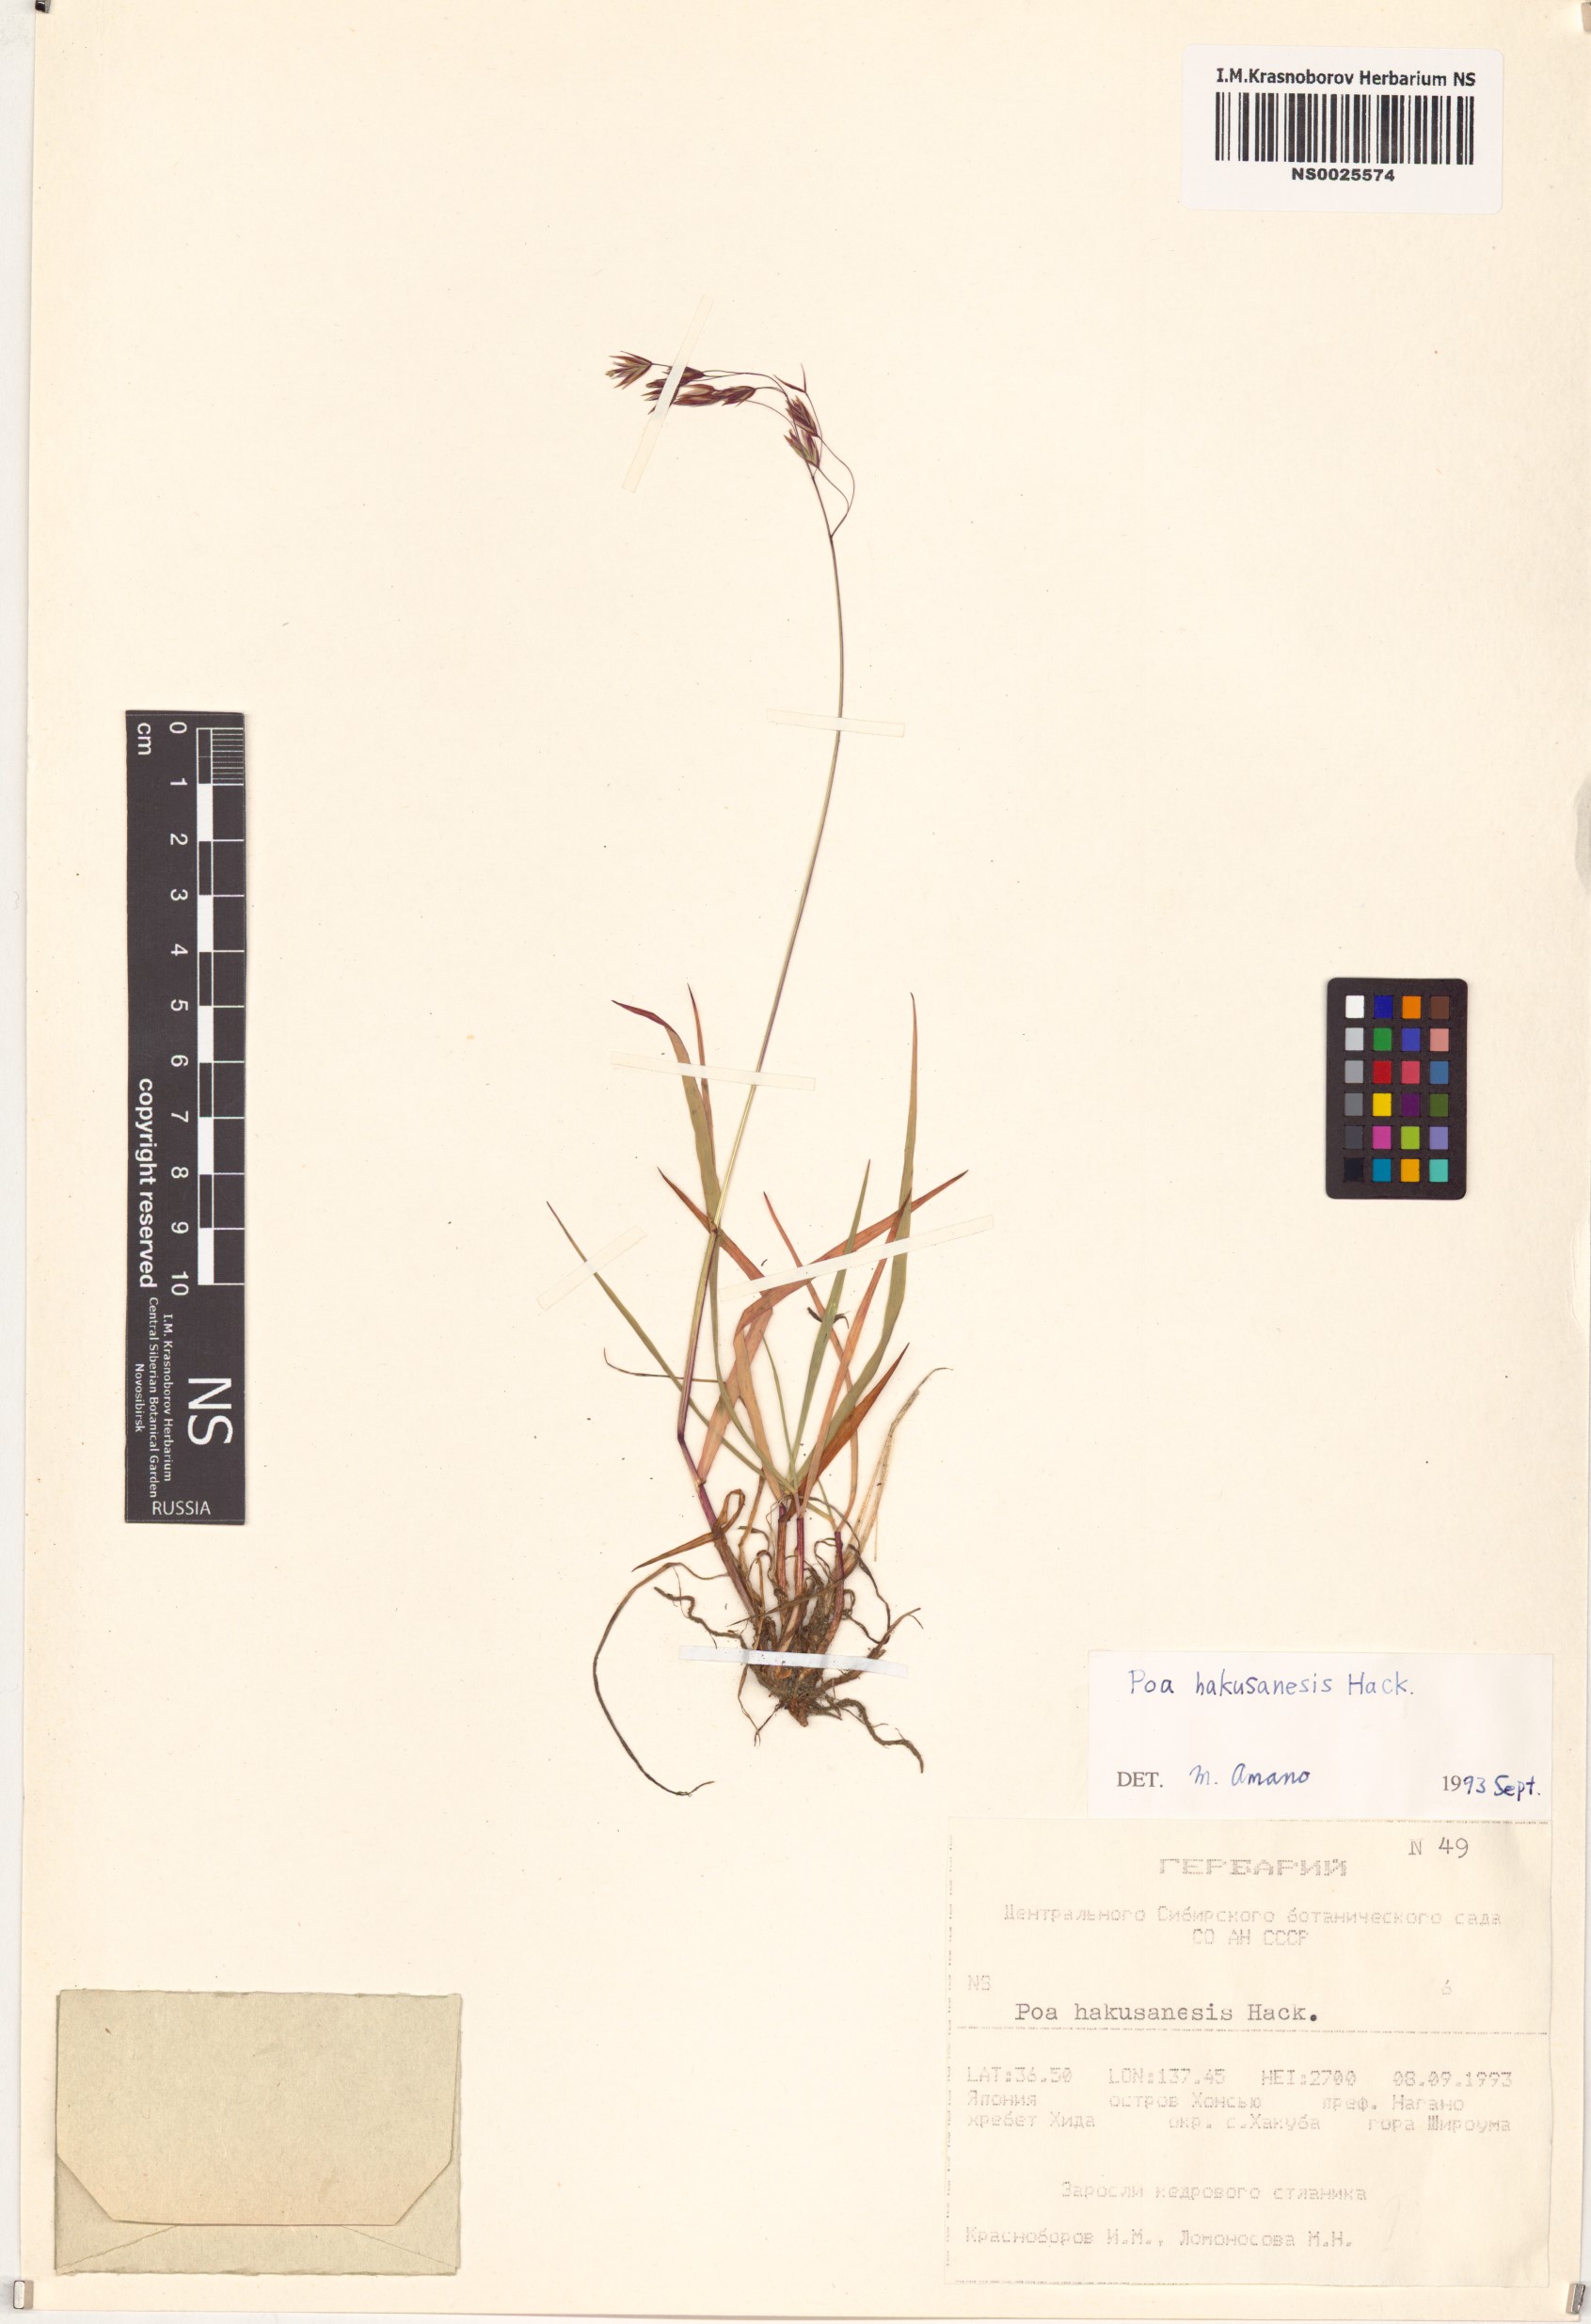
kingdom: Plantae
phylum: Tracheophyta
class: Liliopsida
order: Poales
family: Poaceae
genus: Poa
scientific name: Poa hakusanensis
